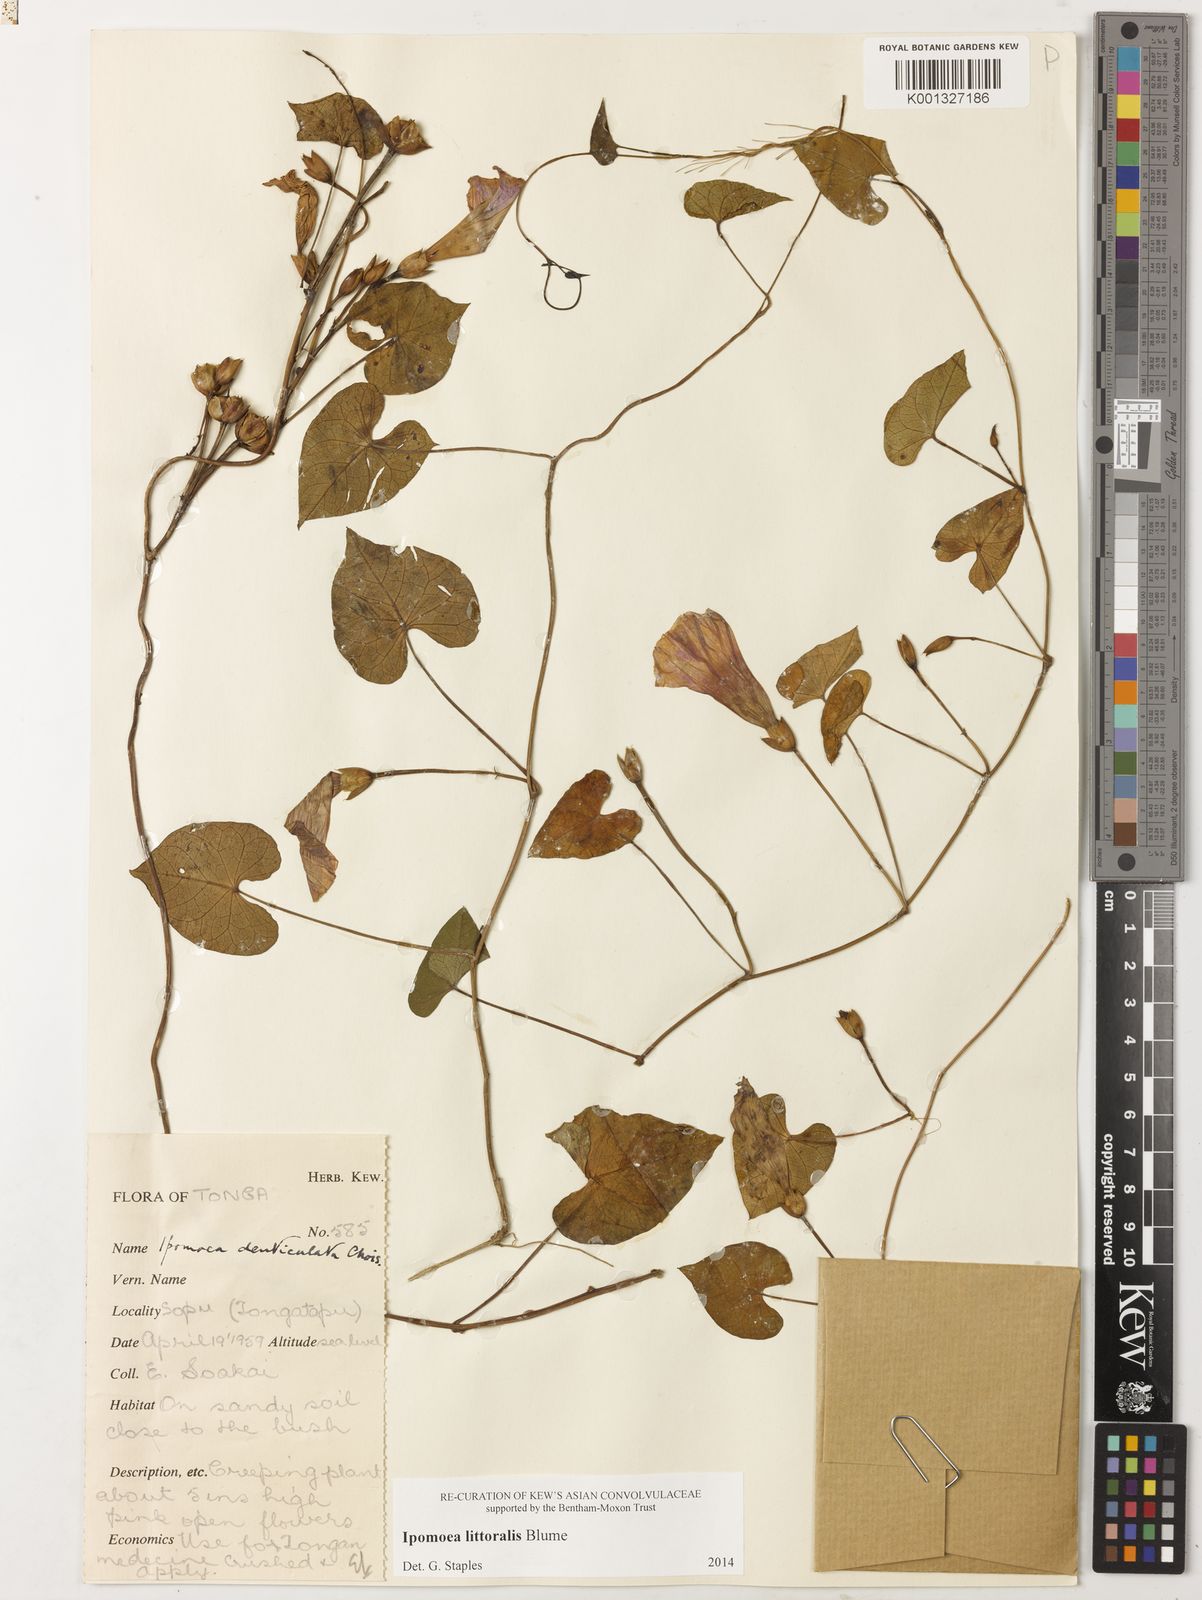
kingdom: Plantae
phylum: Tracheophyta
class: Magnoliopsida
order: Solanales
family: Convolvulaceae
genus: Ipomoea
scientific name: Ipomoea littoralis
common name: Coastal morning glory
